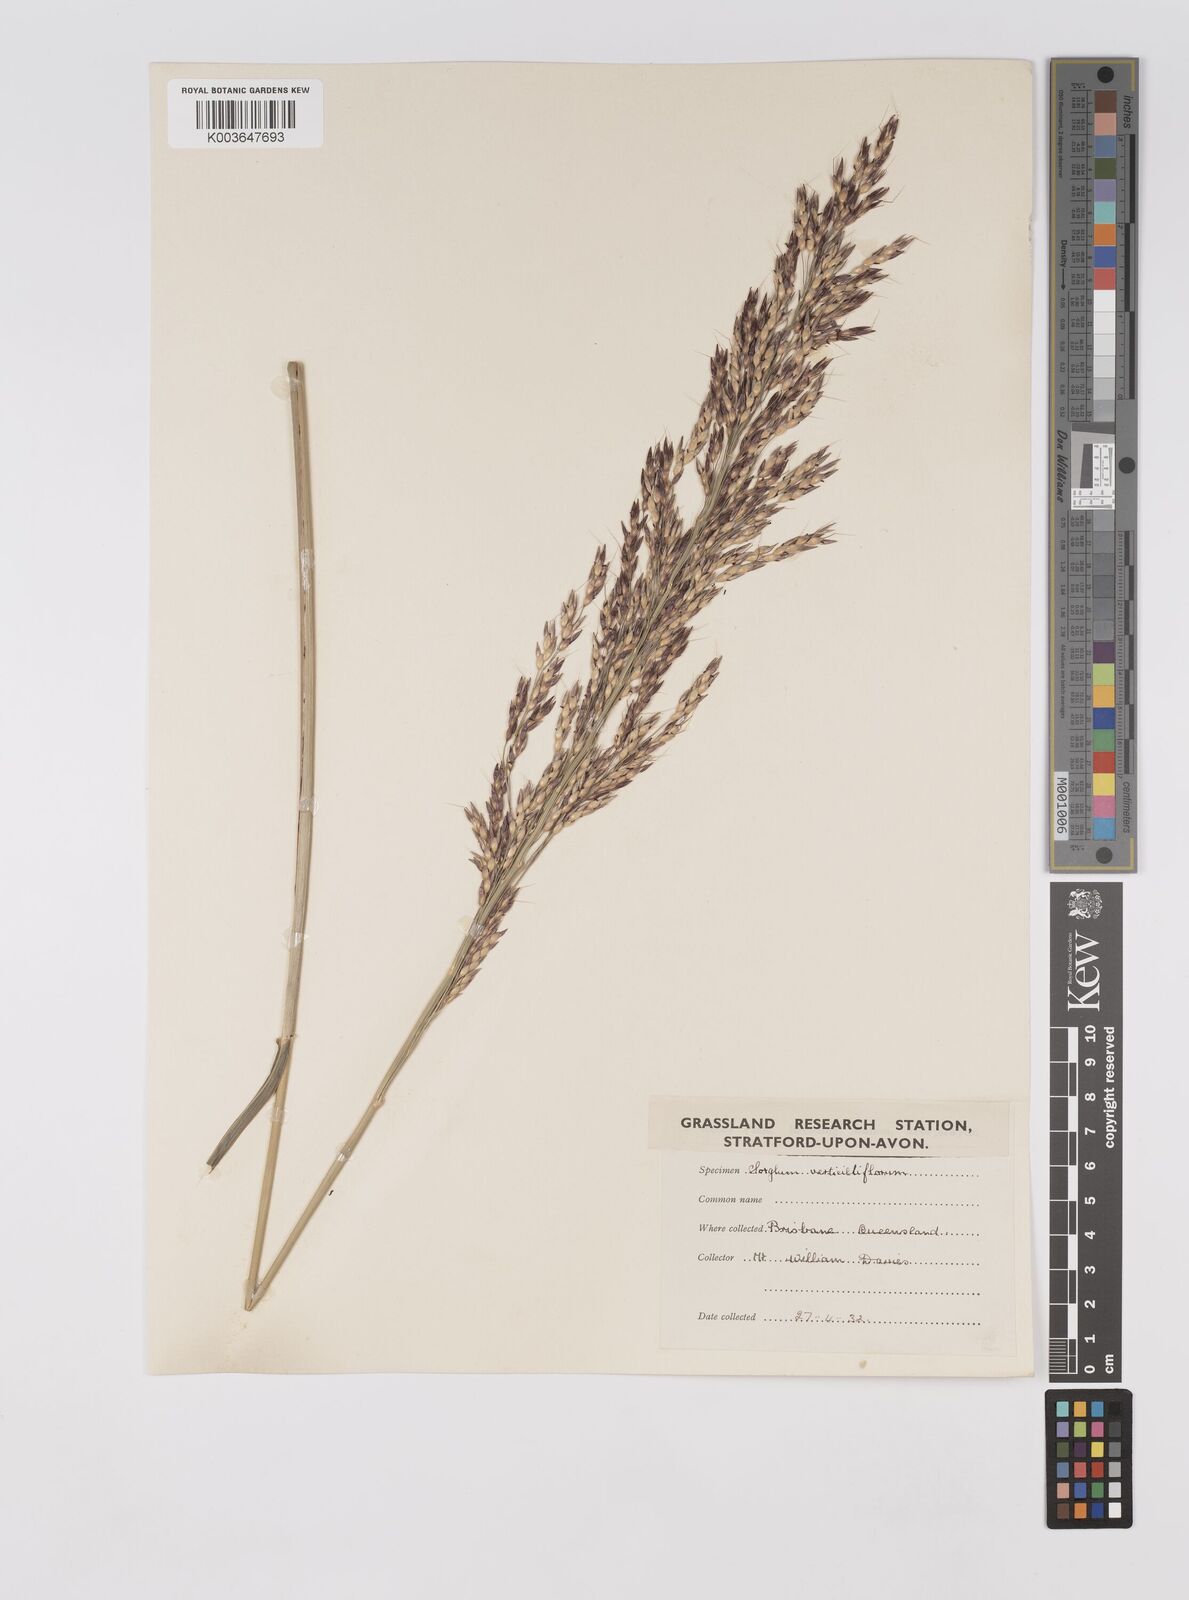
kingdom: Plantae
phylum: Tracheophyta
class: Liliopsida
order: Poales
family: Poaceae
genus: Sorghum
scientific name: Sorghum arundinaceum
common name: Sorghum
